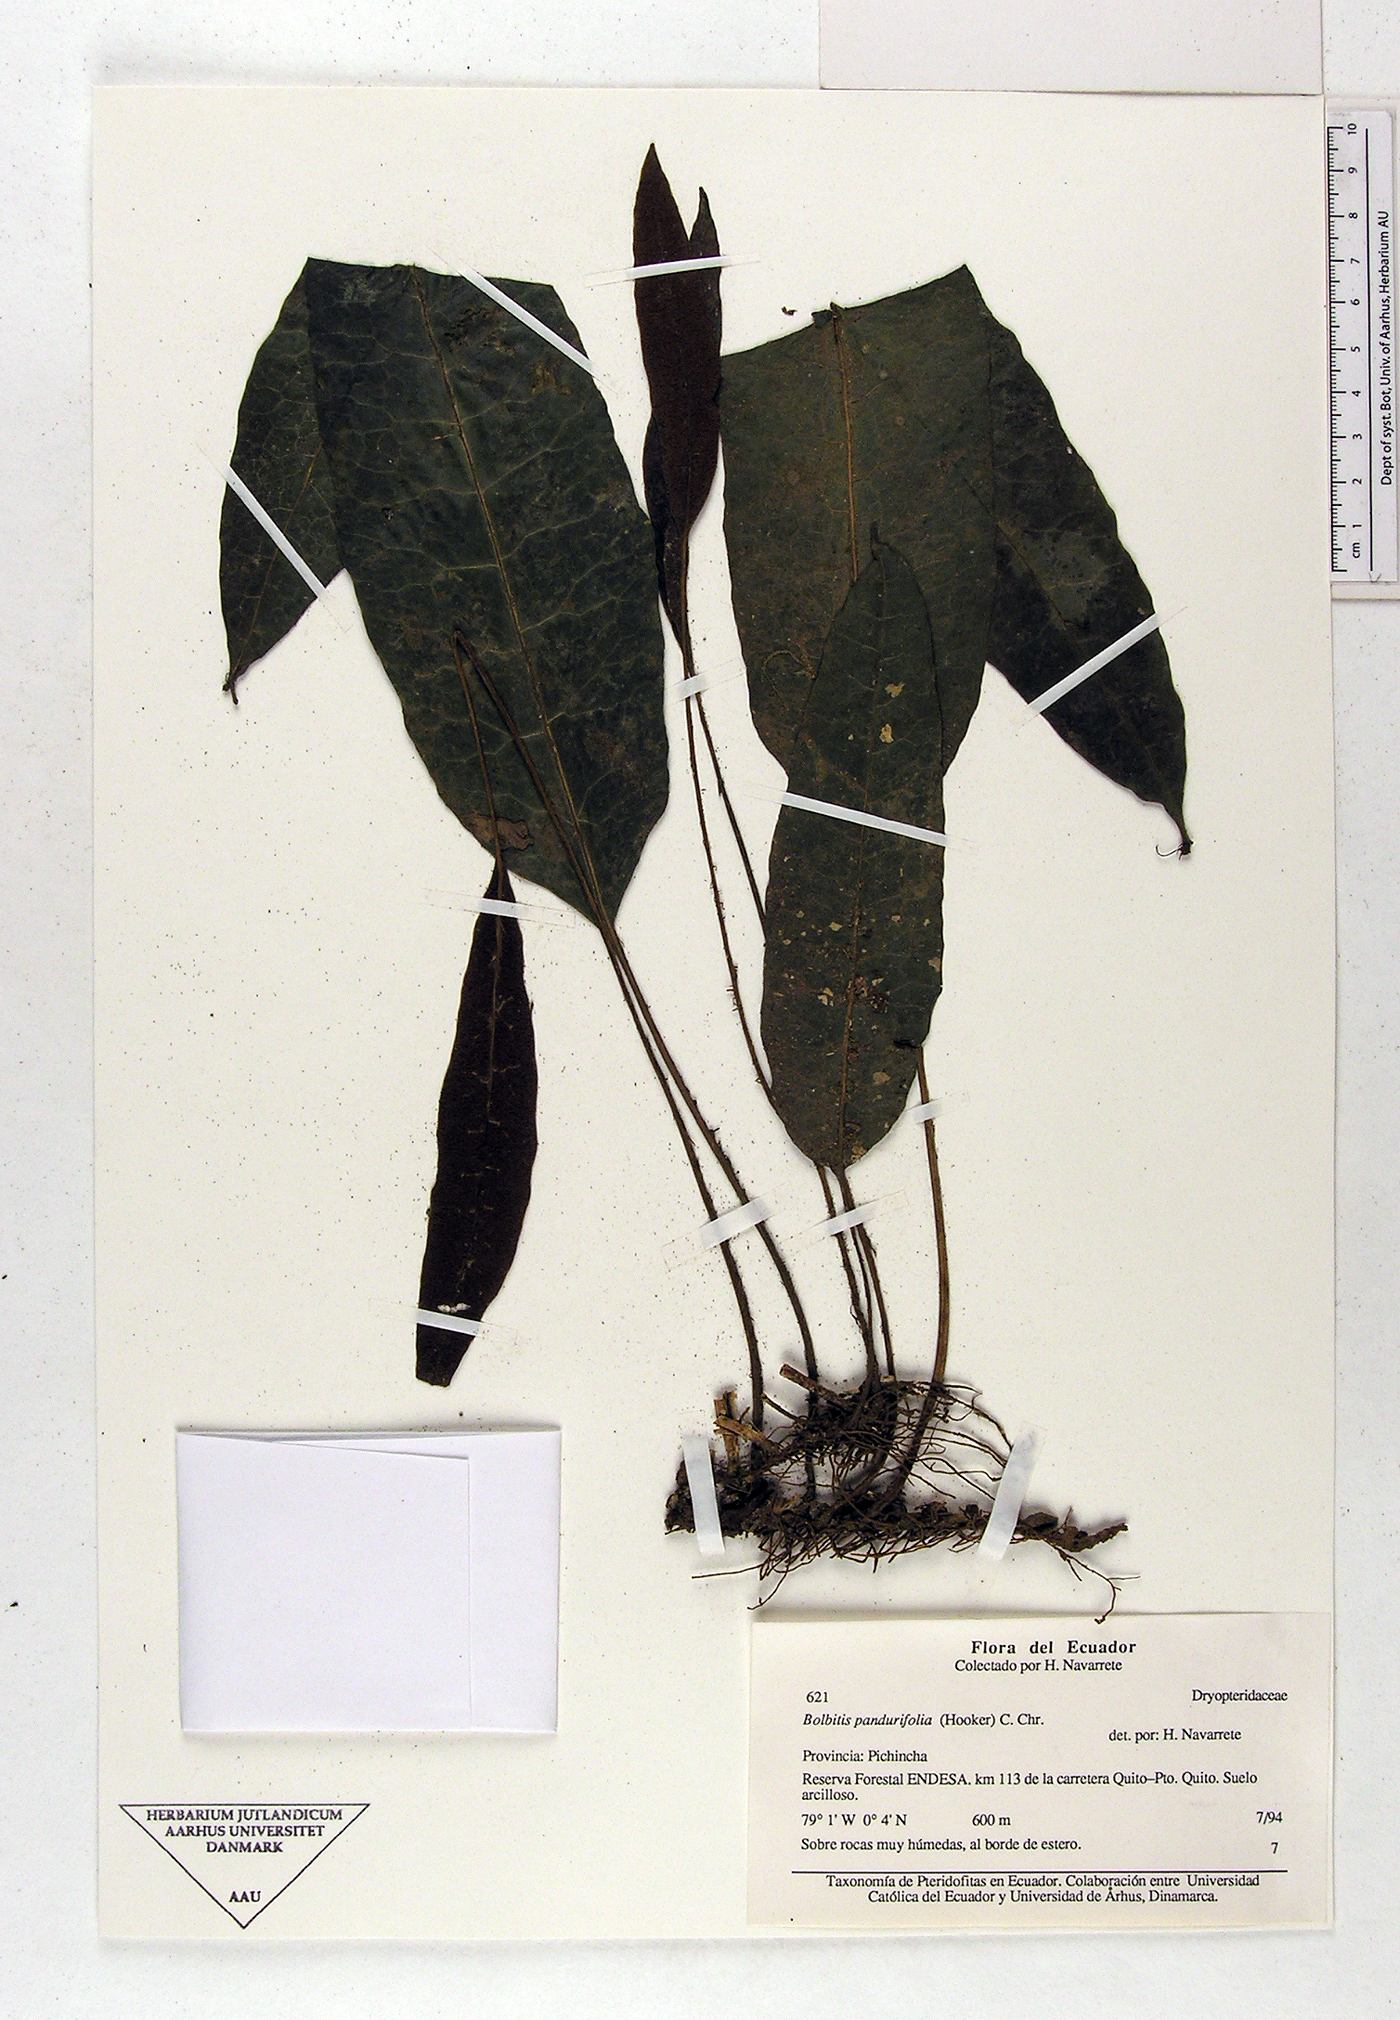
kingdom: Plantae
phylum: Tracheophyta
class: Polypodiopsida
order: Polypodiales
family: Dryopteridaceae
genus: Bolbitis
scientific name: Bolbitis pandurifolia
